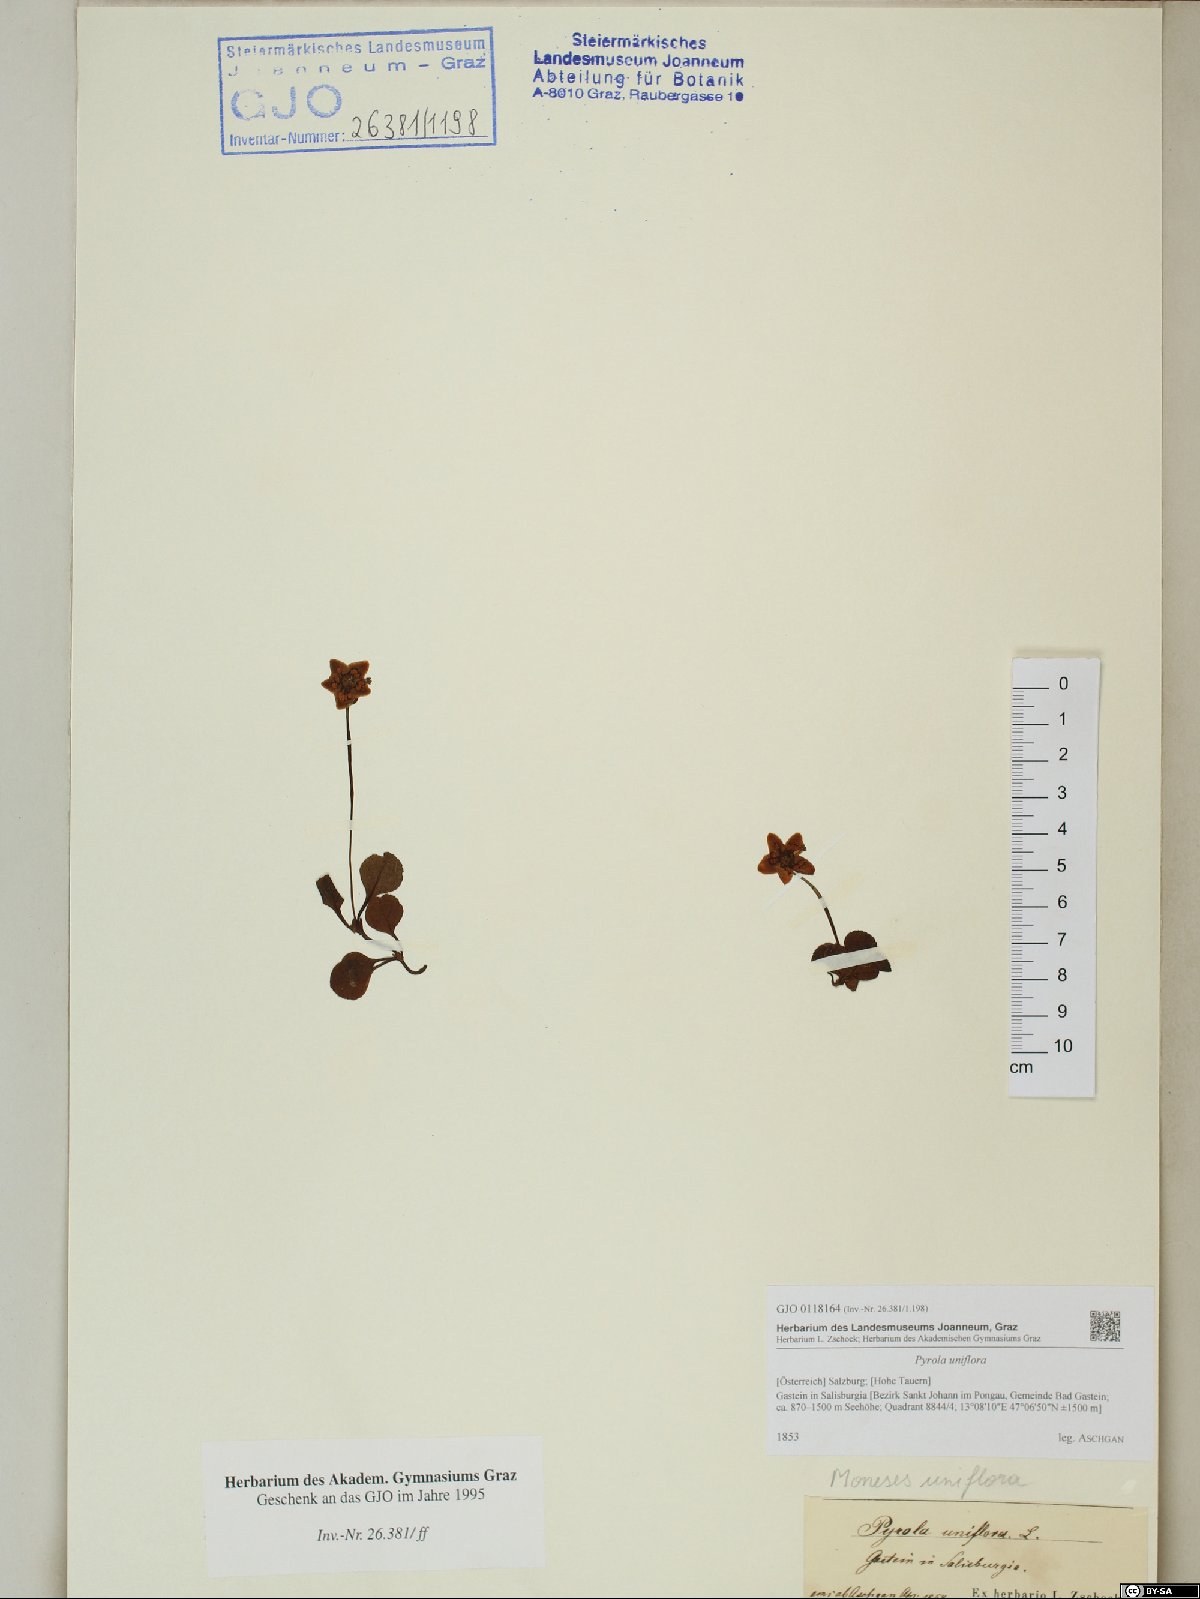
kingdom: Plantae
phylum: Tracheophyta
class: Magnoliopsida
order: Ericales
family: Ericaceae
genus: Moneses
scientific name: Moneses uniflora
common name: One-flowered wintergreen
